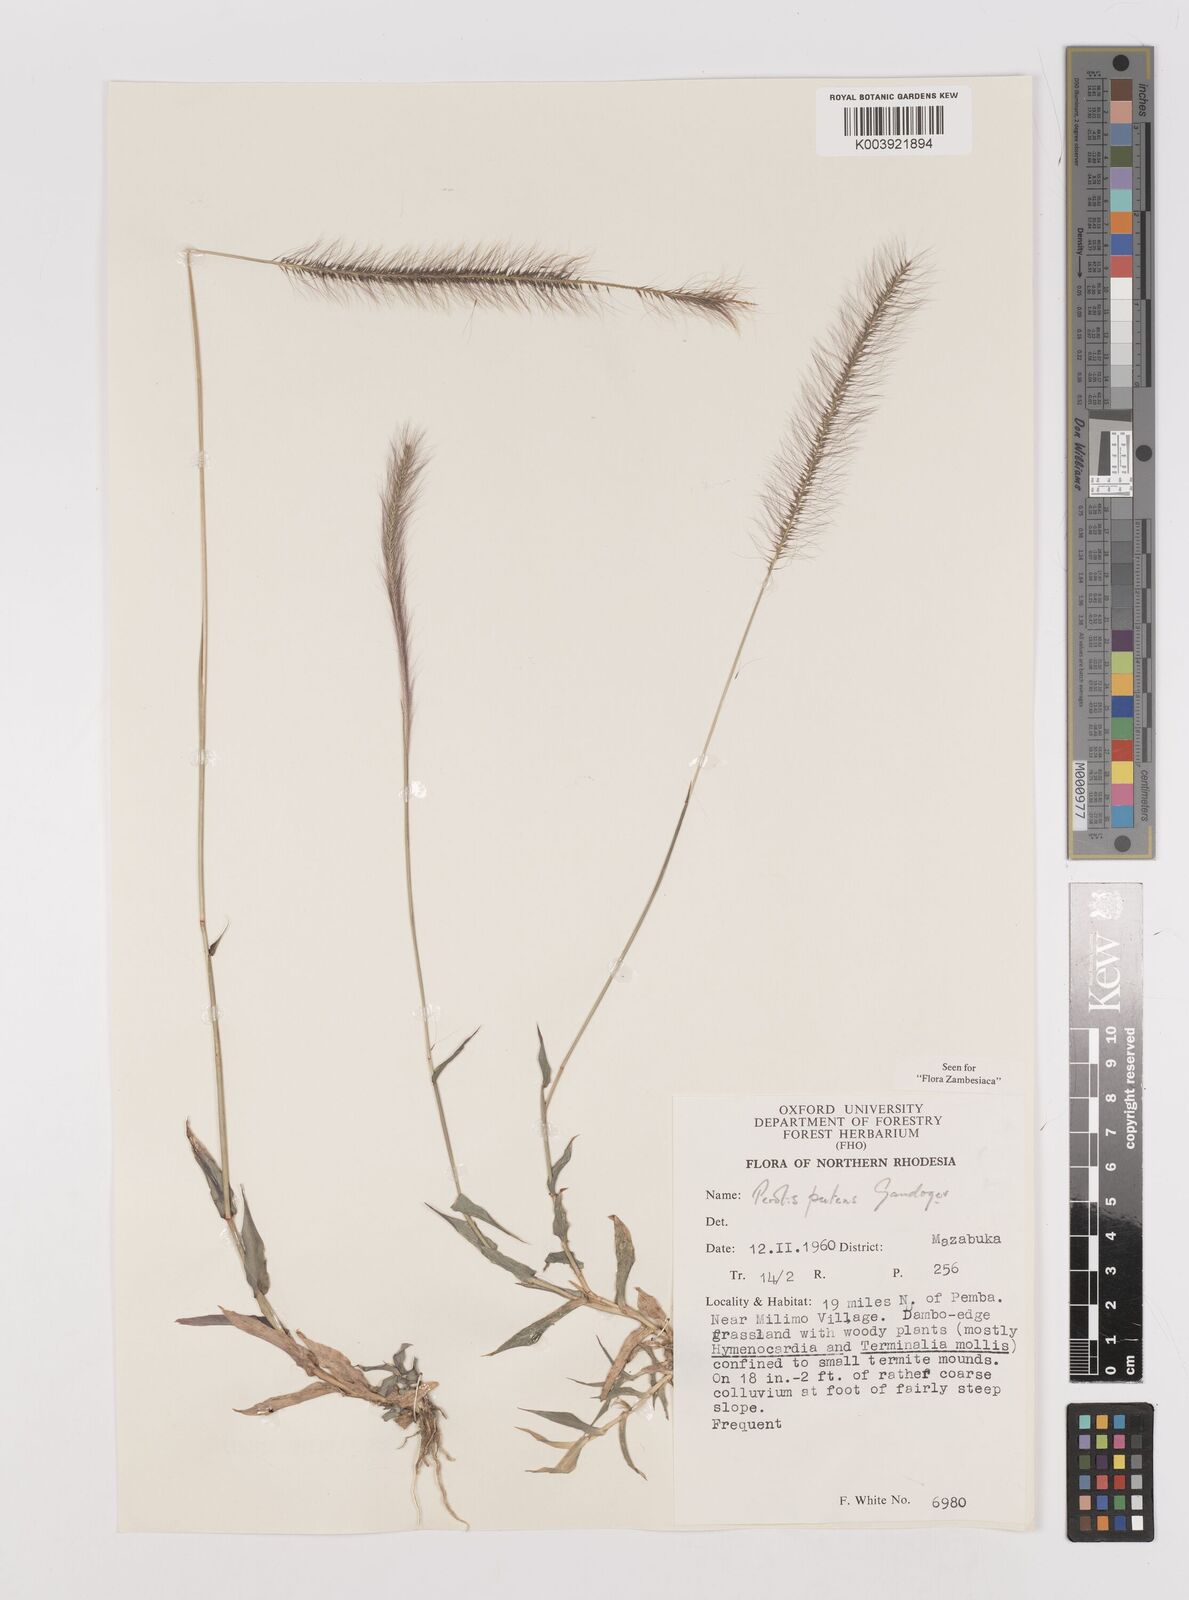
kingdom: Plantae
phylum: Tracheophyta
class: Liliopsida
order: Poales
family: Poaceae
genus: Perotis
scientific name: Perotis patens
